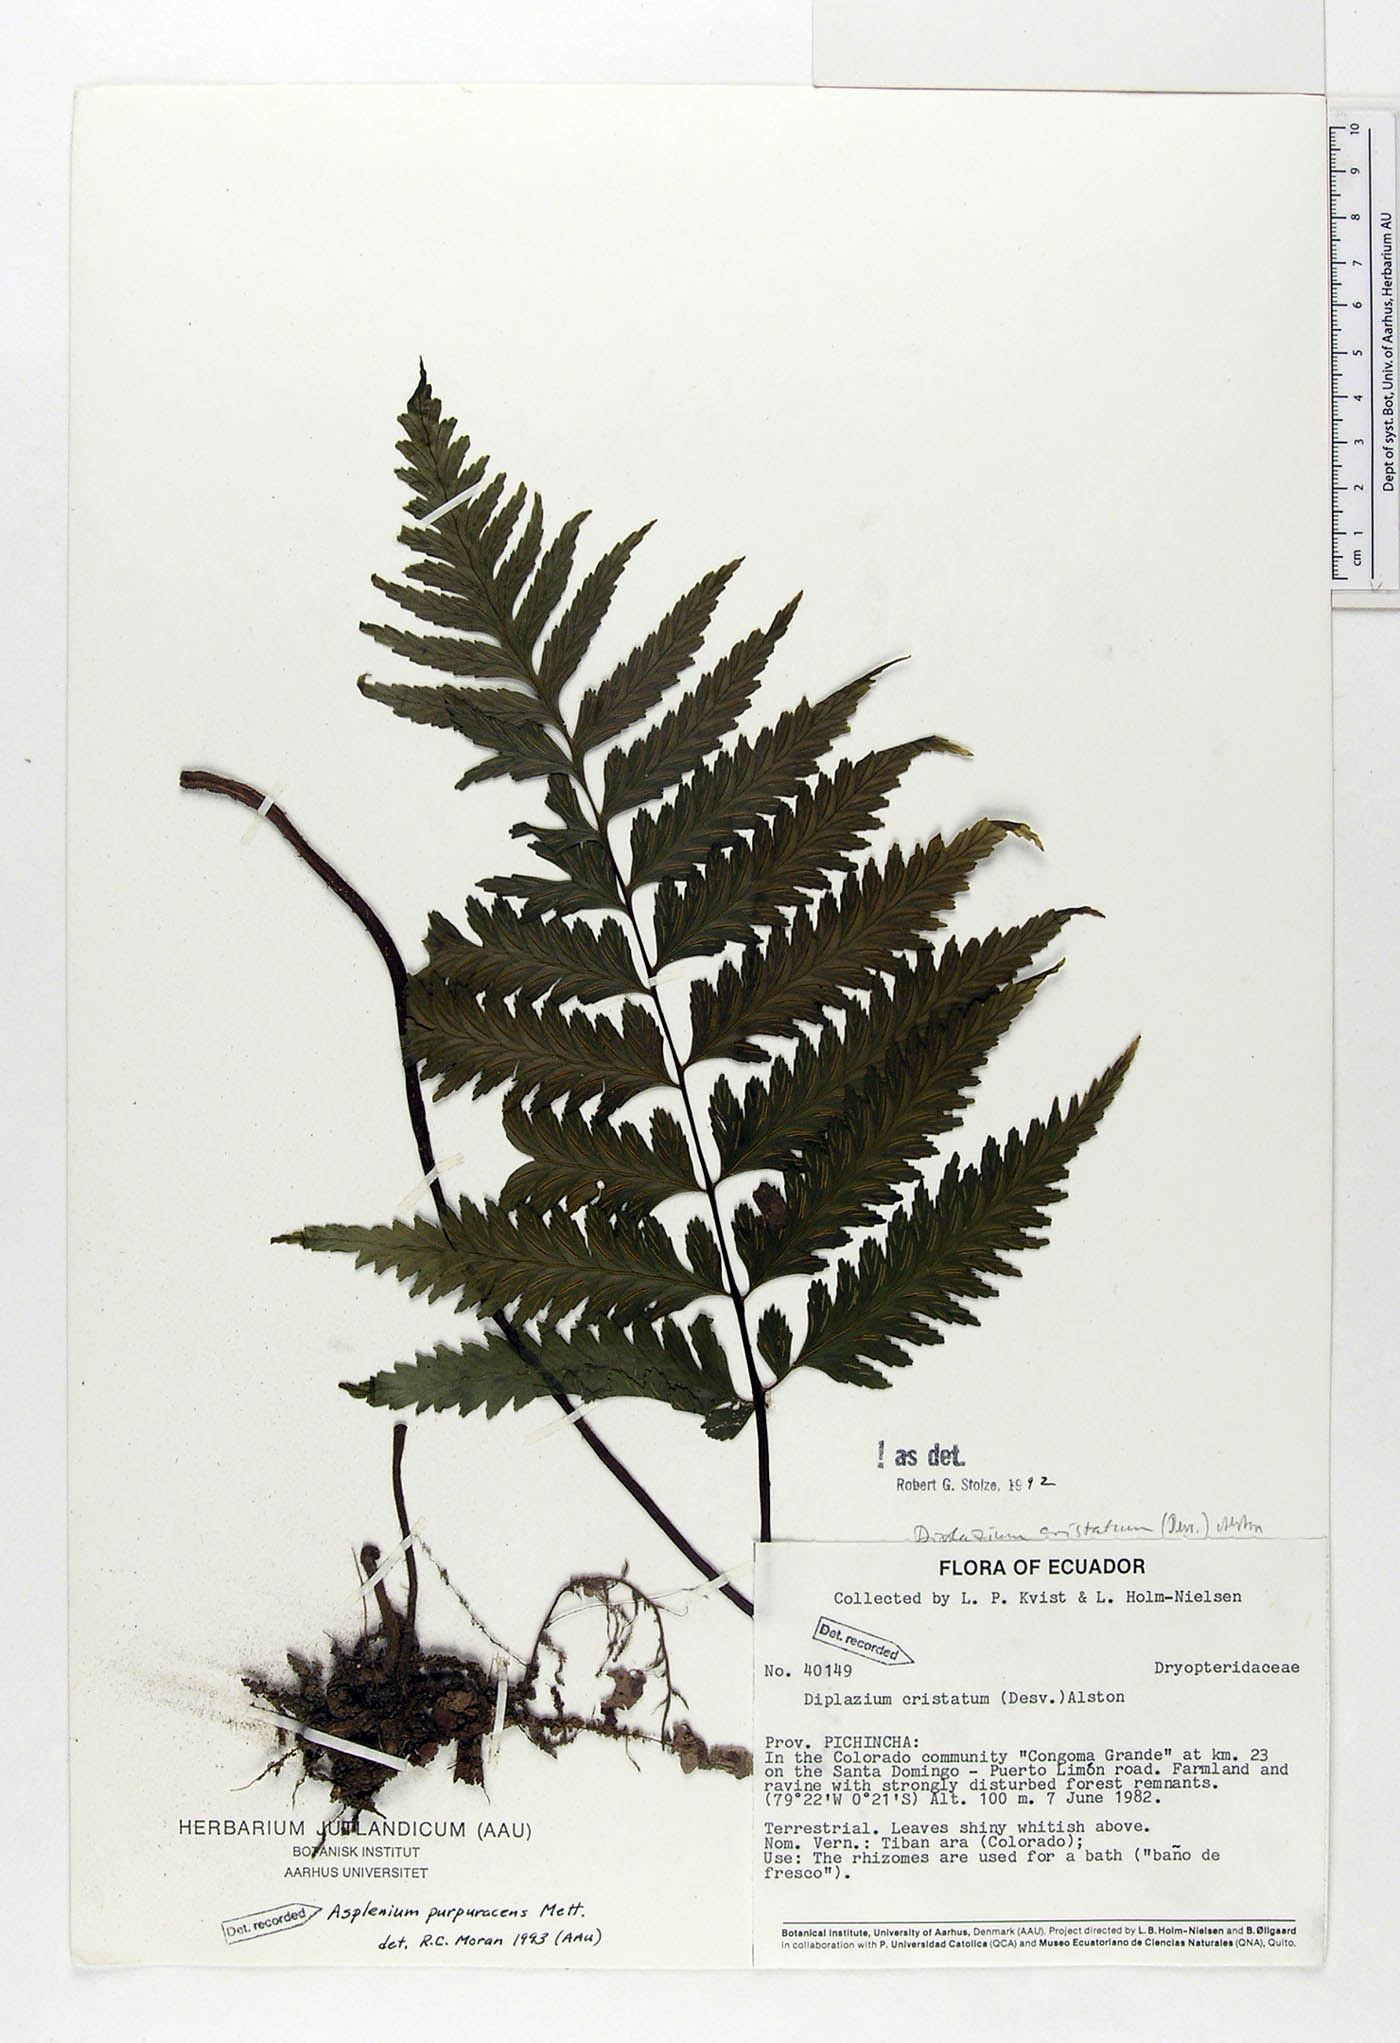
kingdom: Plantae
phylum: Tracheophyta
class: Polypodiopsida
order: Polypodiales
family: Aspleniaceae
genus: Hymenasplenium
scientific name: Hymenasplenium purpurascens
